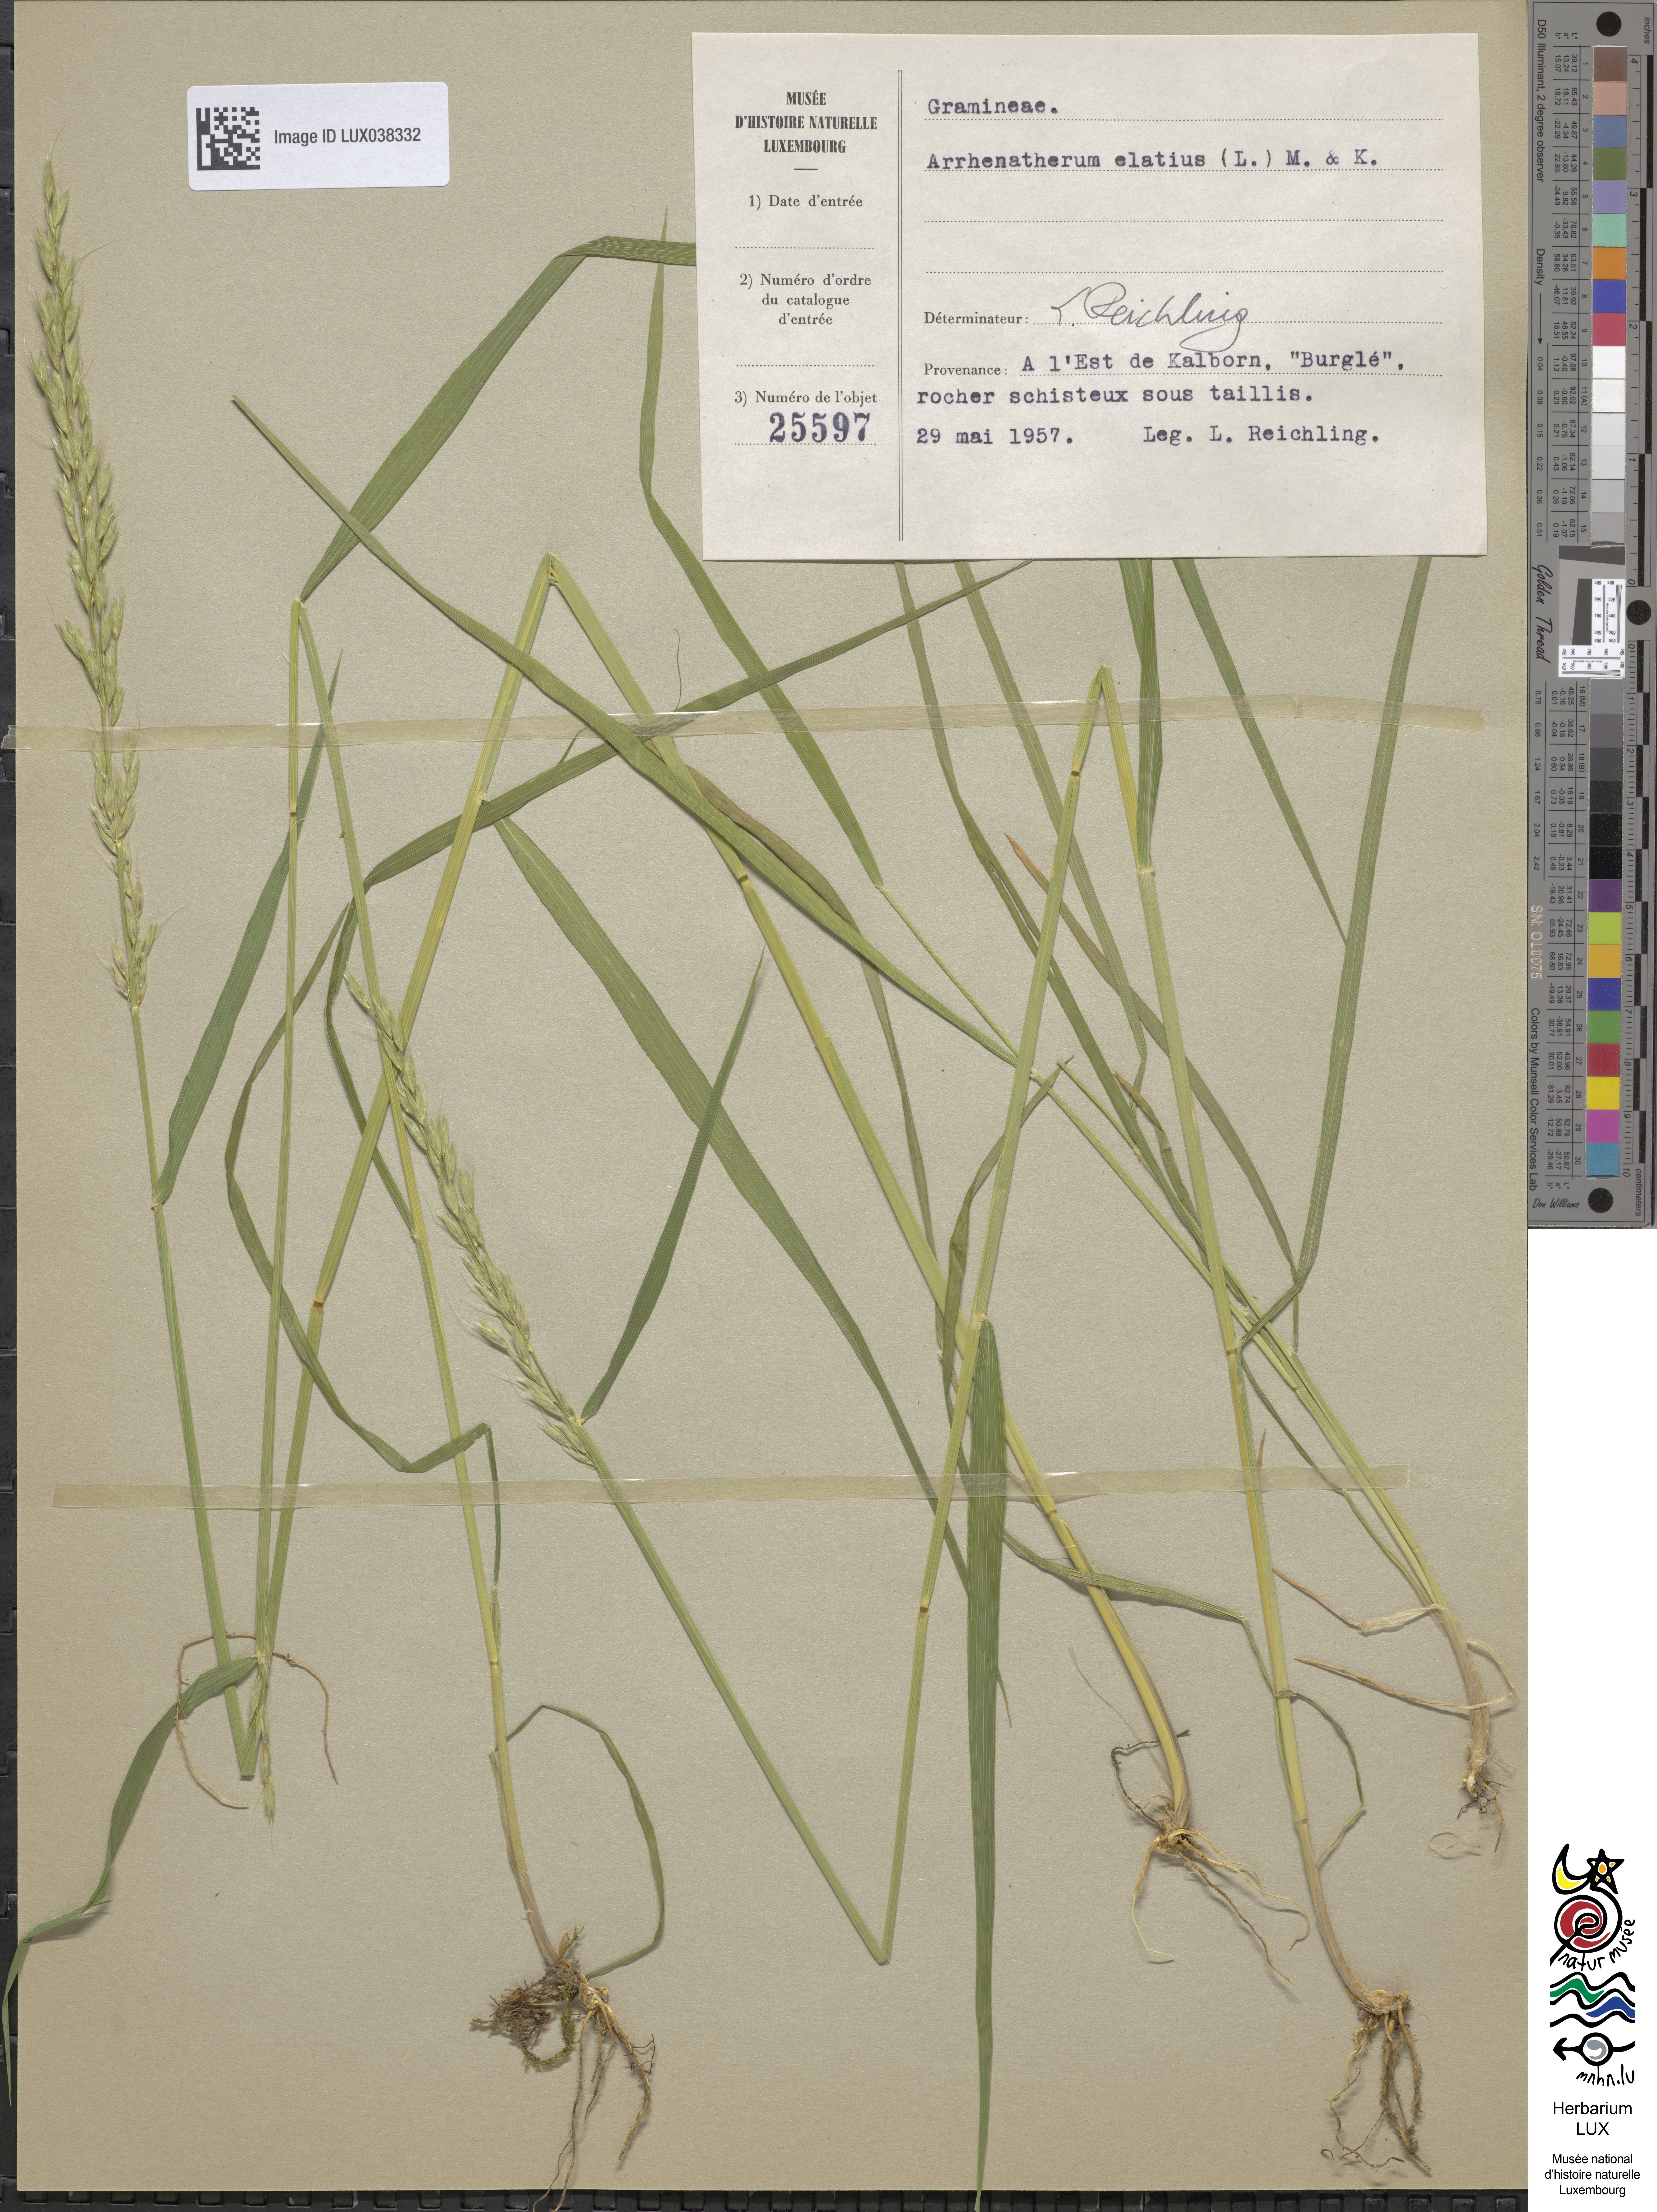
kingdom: Plantae
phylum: Tracheophyta
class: Liliopsida
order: Poales
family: Poaceae
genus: Arrhenatherum
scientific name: Arrhenatherum elatius
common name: Tall oatgrass
